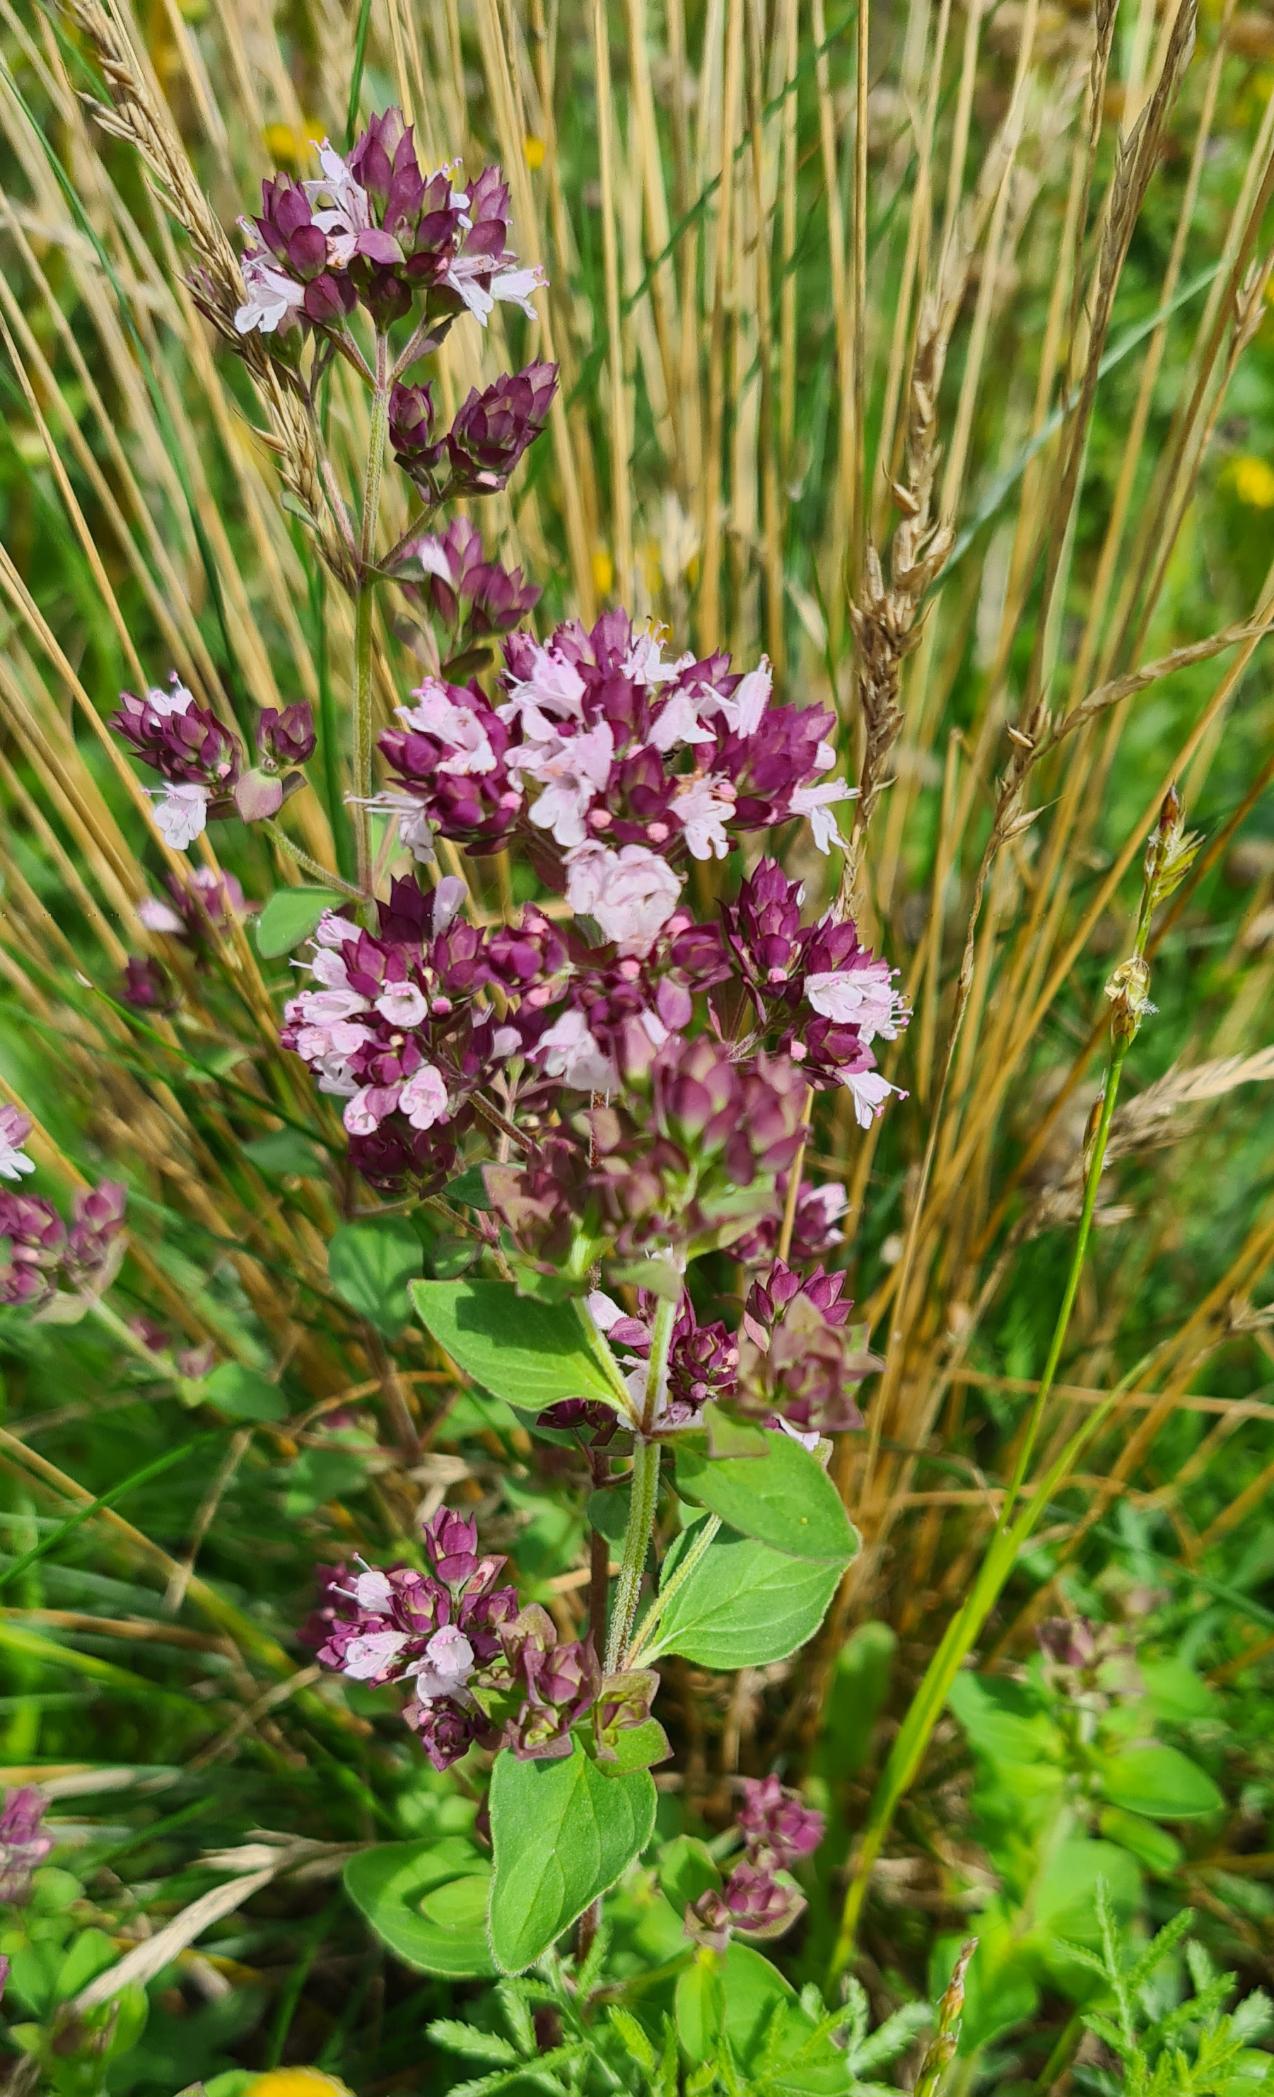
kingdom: Plantae
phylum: Tracheophyta
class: Magnoliopsida
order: Lamiales
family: Lamiaceae
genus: Origanum
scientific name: Origanum vulgare
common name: Merian
